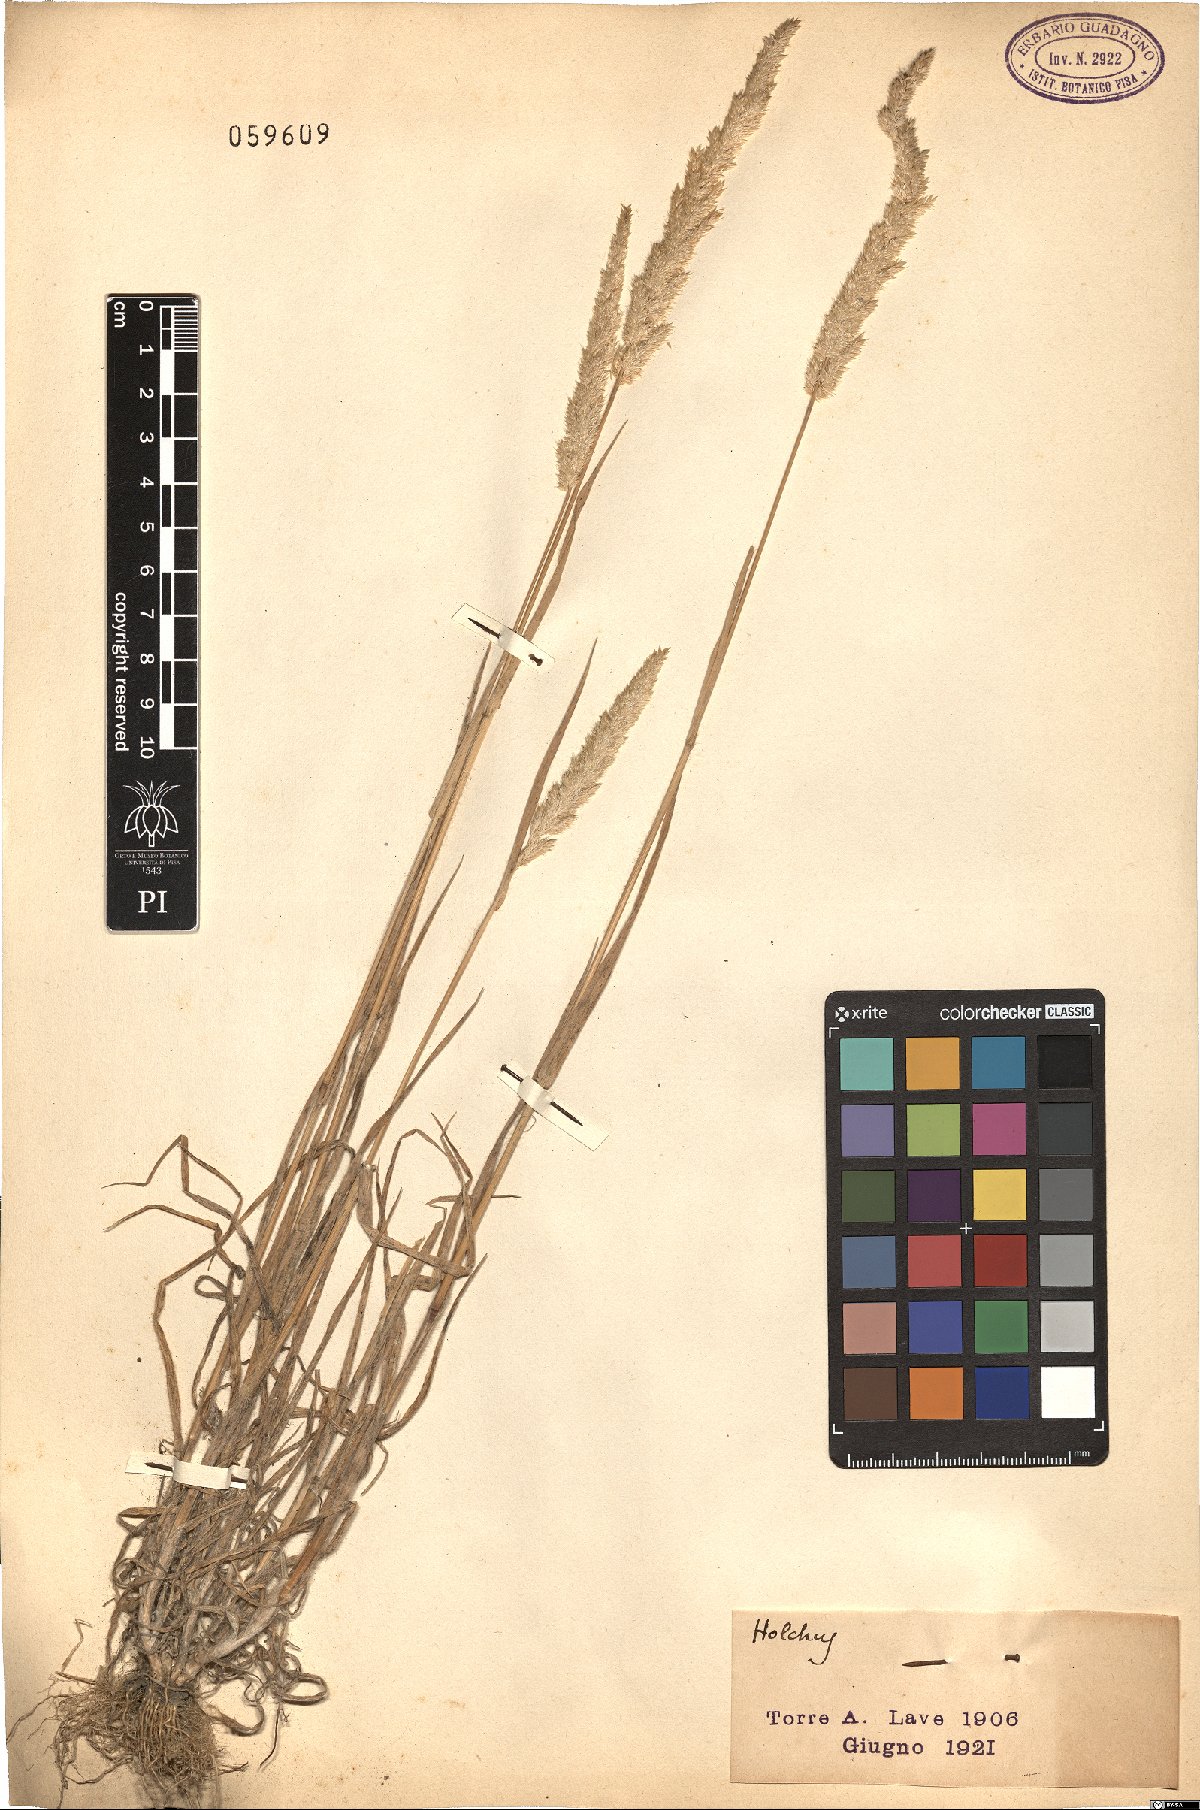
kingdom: Plantae
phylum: Tracheophyta
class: Liliopsida
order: Poales
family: Poaceae
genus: Holcus
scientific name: Holcus
